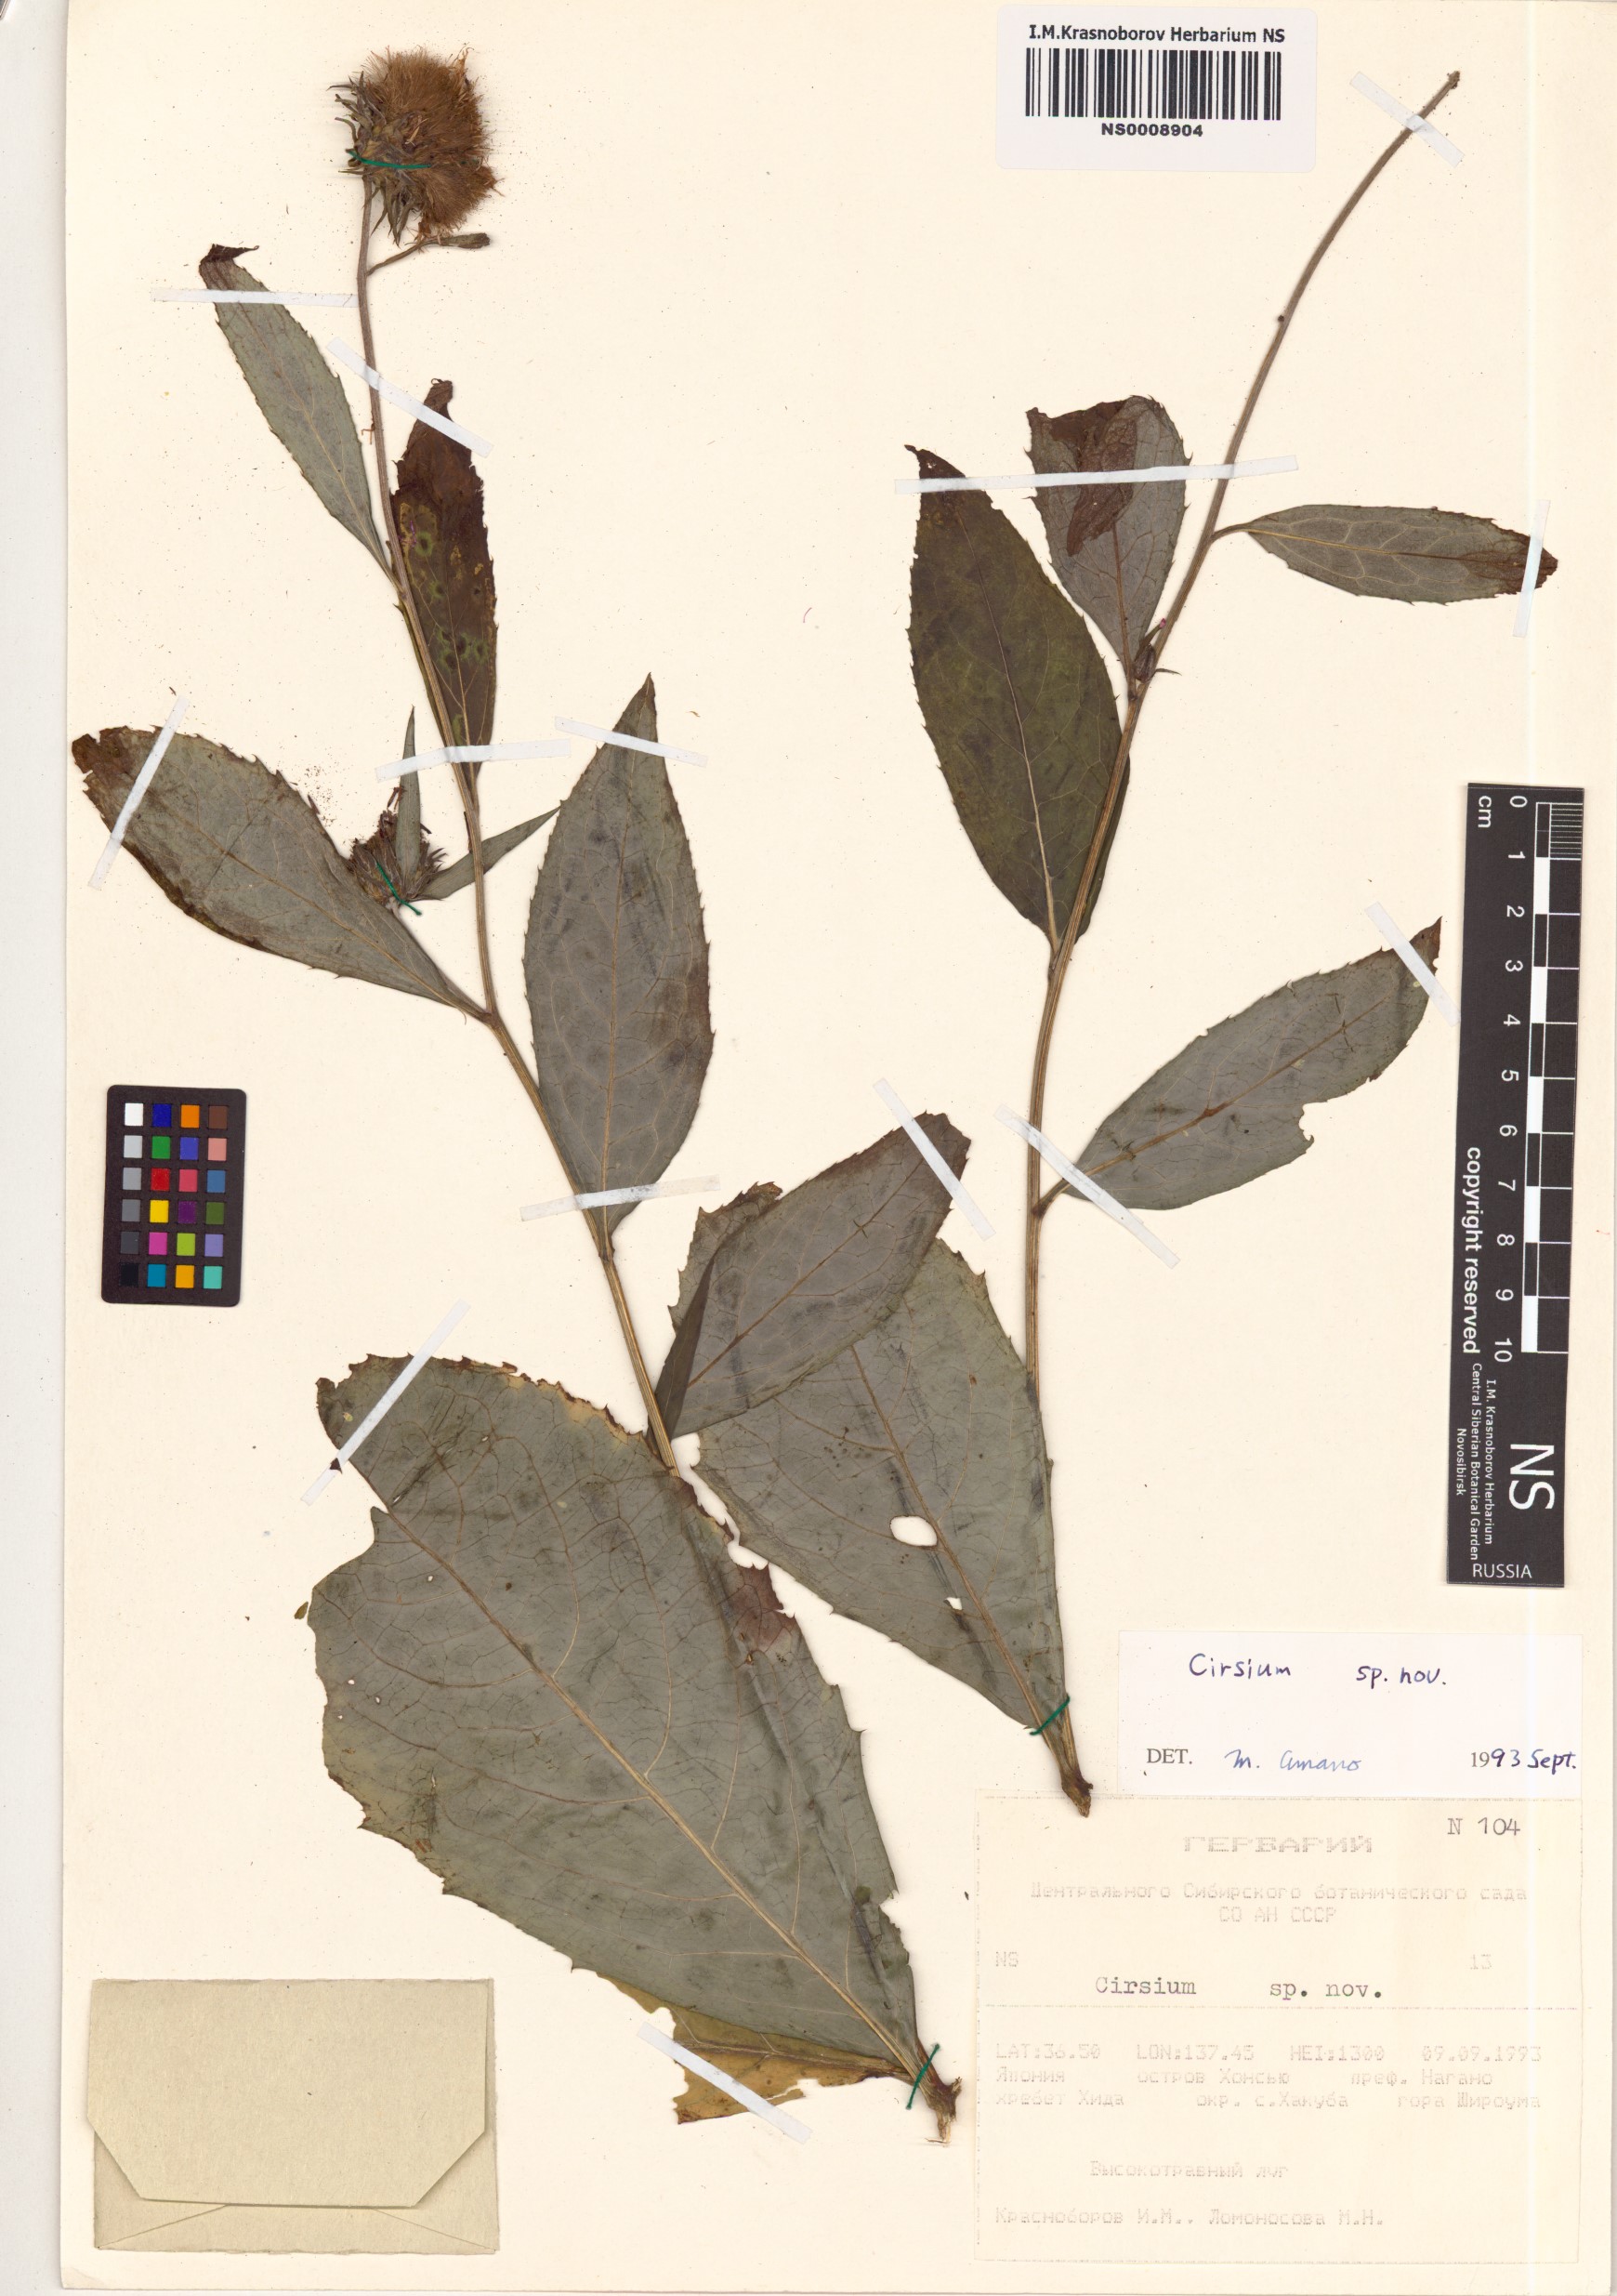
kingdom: Plantae
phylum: Tracheophyta
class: Magnoliopsida
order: Asterales
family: Asteraceae
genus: Cirsium
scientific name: Cirsium
